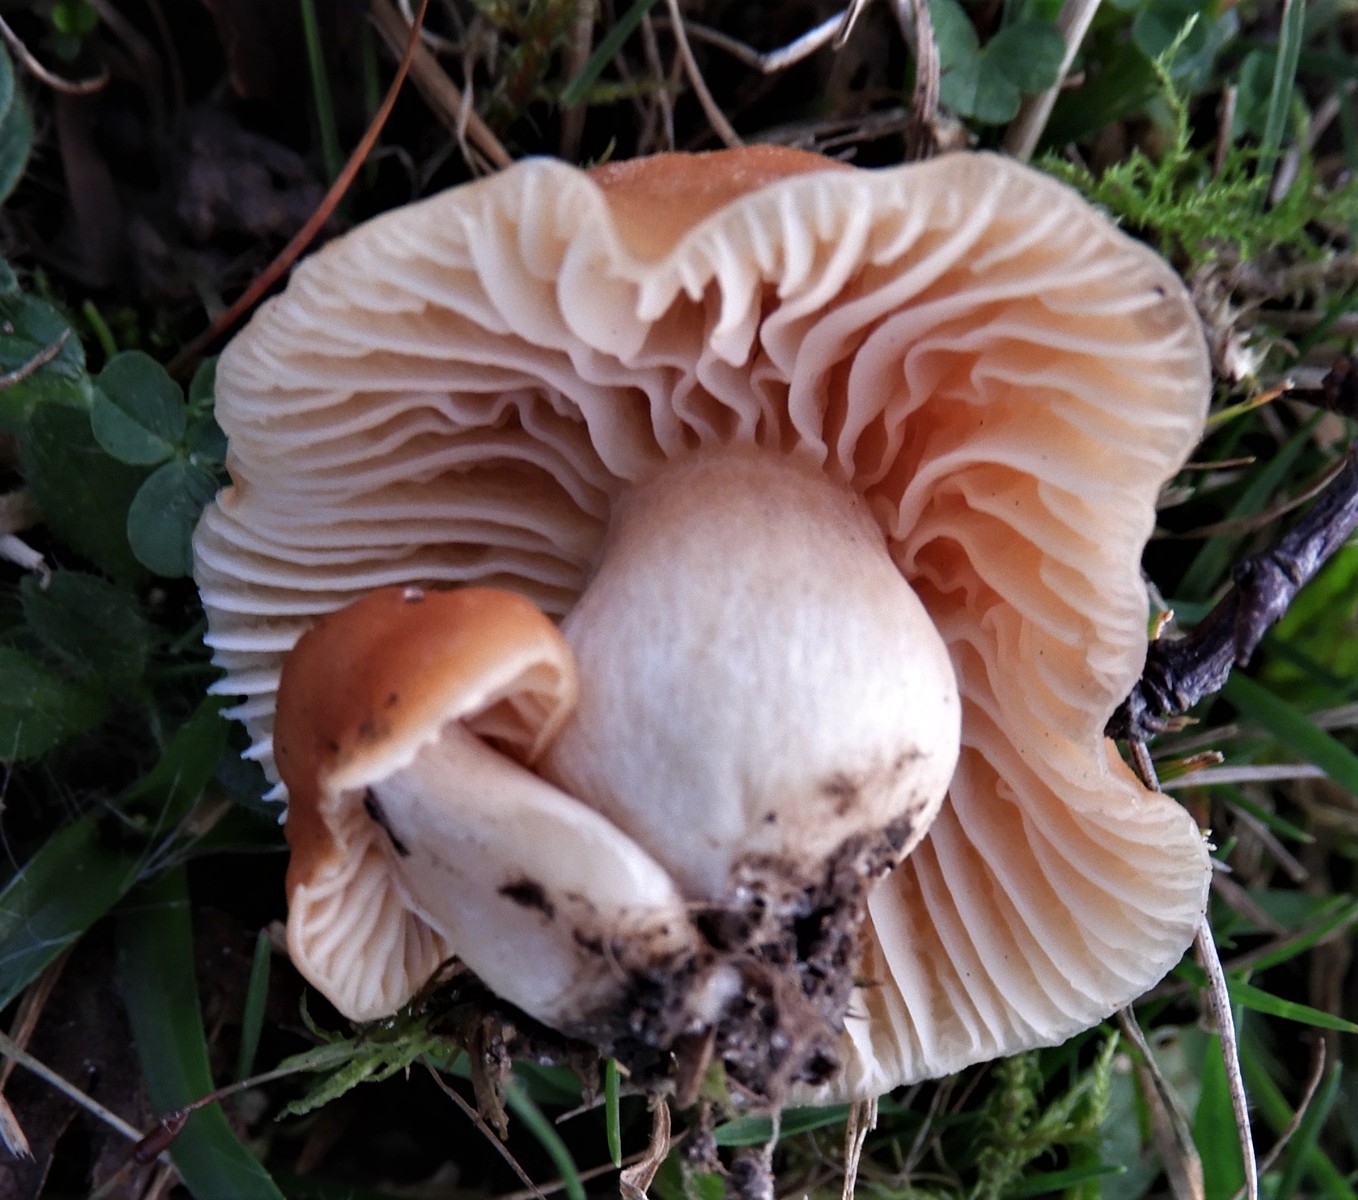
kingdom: Fungi
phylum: Basidiomycota
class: Agaricomycetes
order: Agaricales
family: Hygrophoraceae
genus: Cuphophyllus
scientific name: Cuphophyllus pratensis
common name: eng-vokshat
